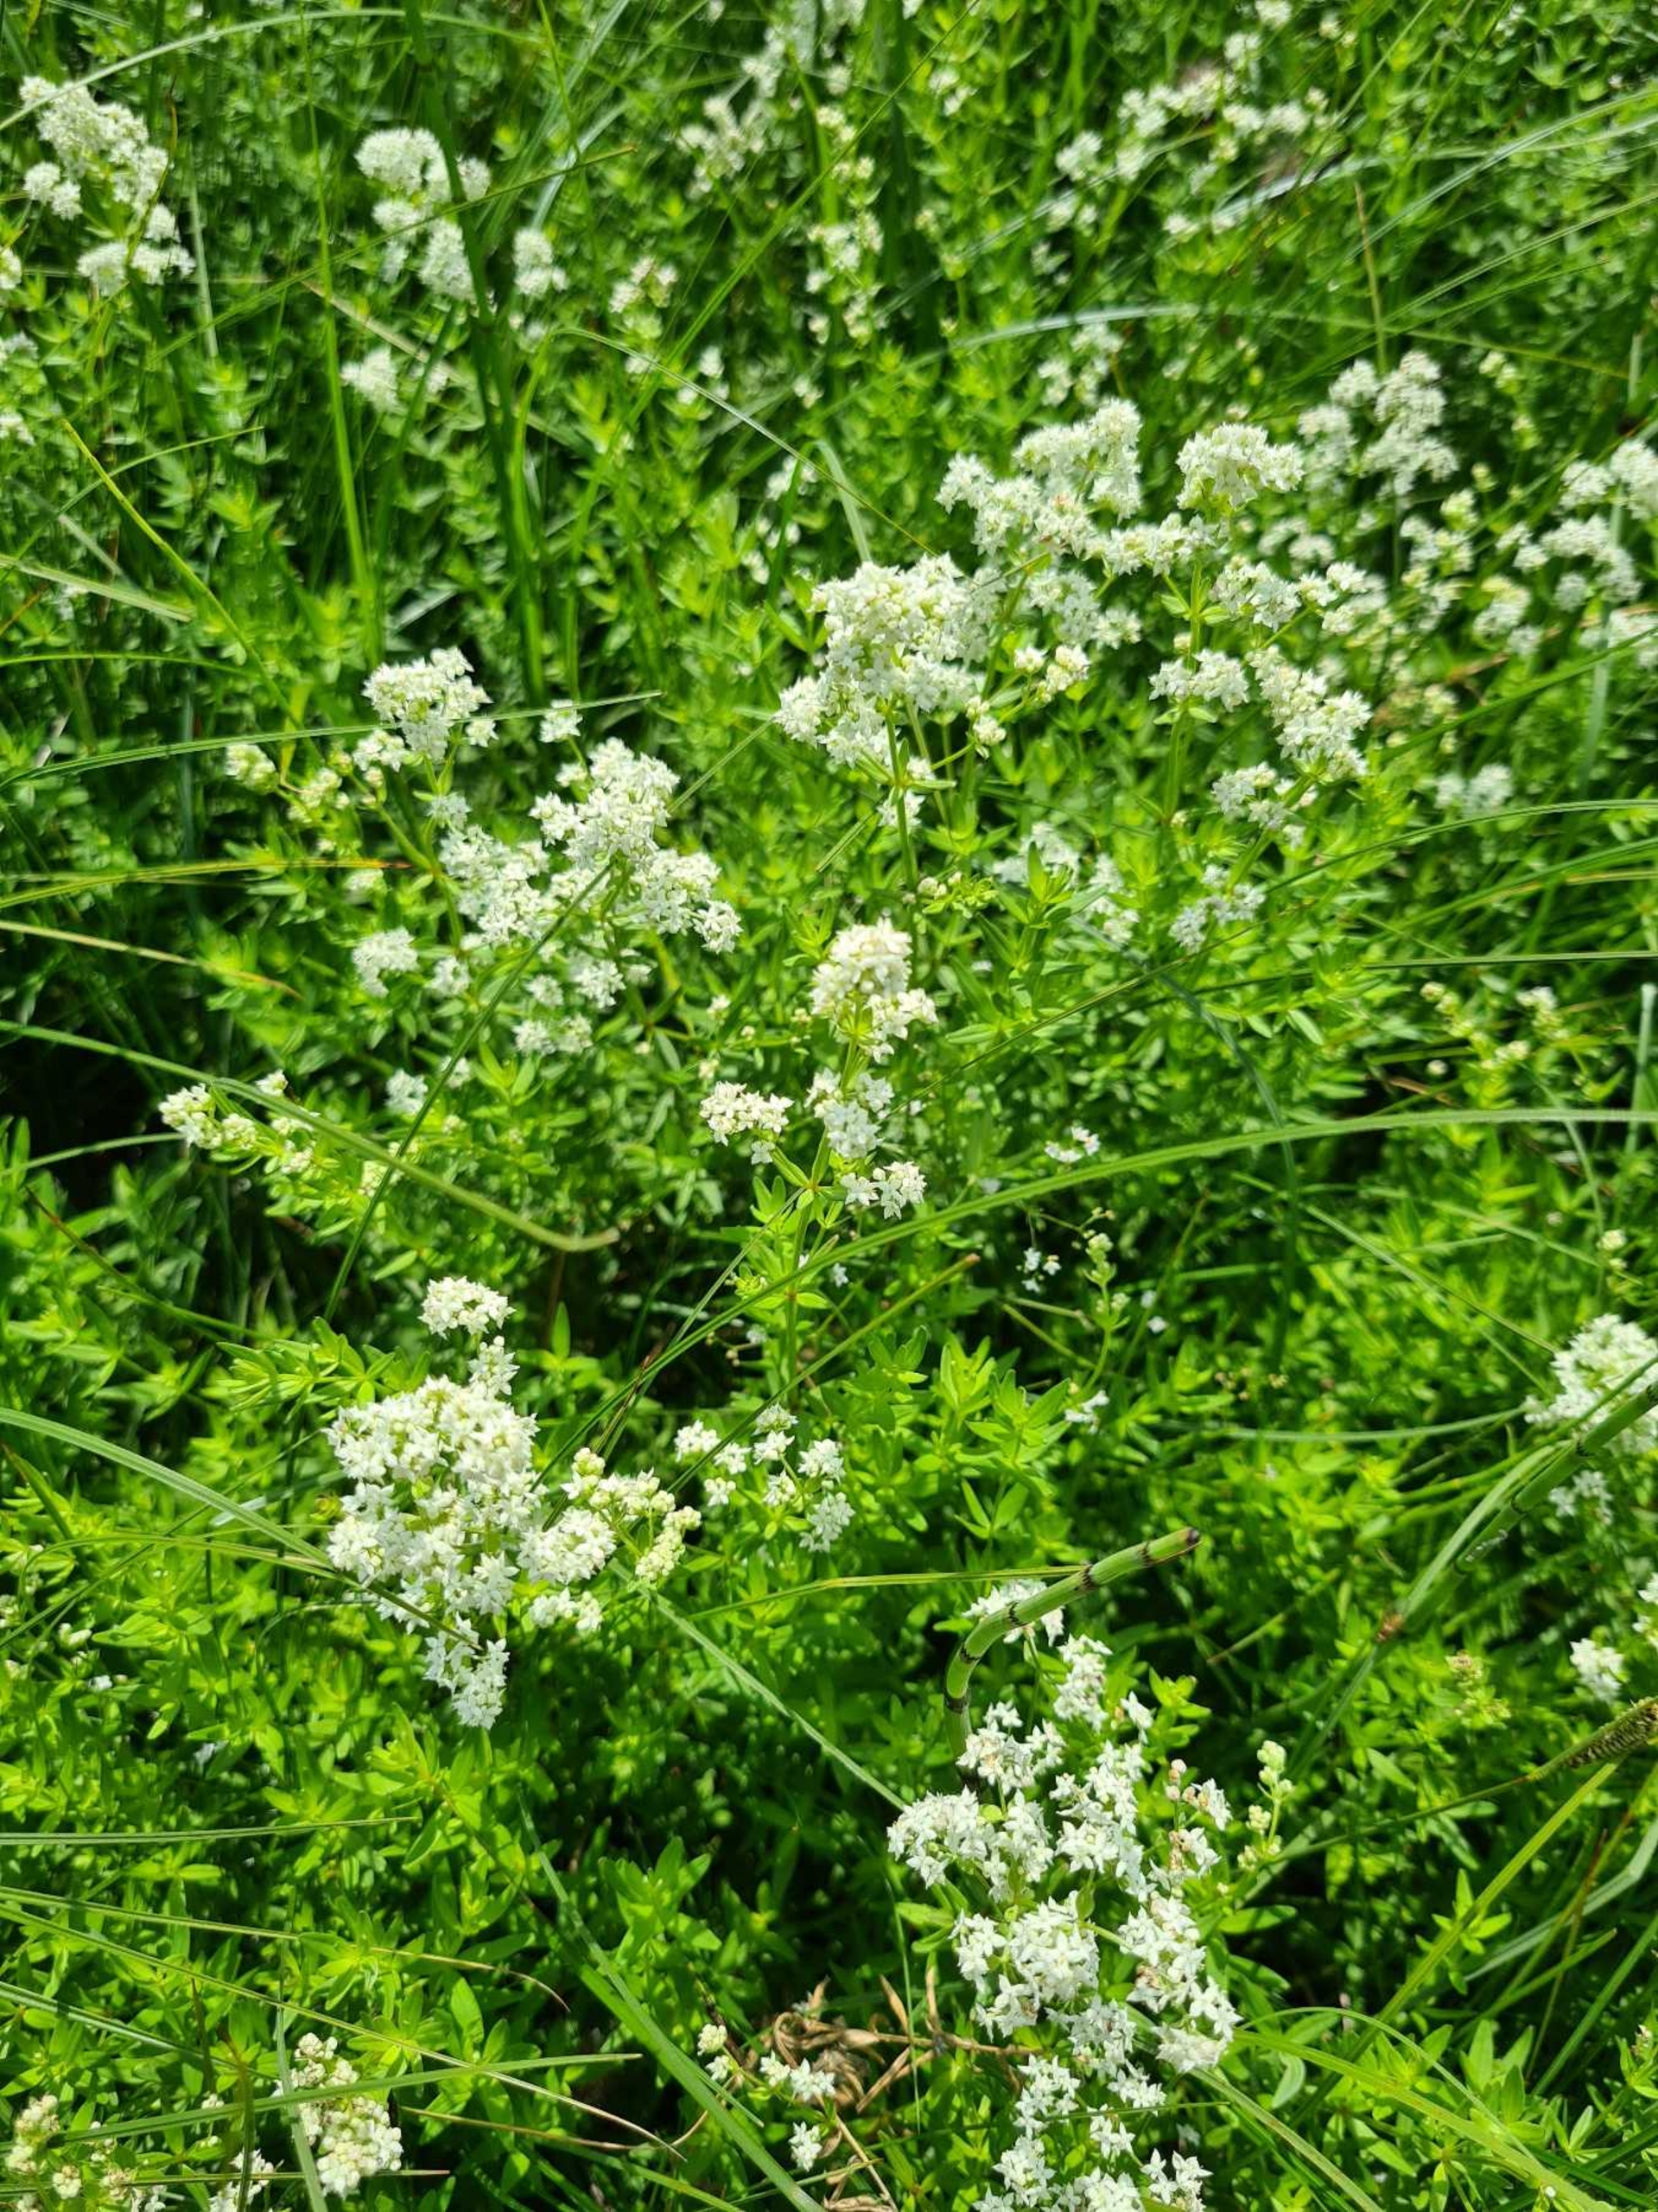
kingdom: Plantae
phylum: Tracheophyta
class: Magnoliopsida
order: Gentianales
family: Rubiaceae
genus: Galium
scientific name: Galium boreale
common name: Trenervet snerre
